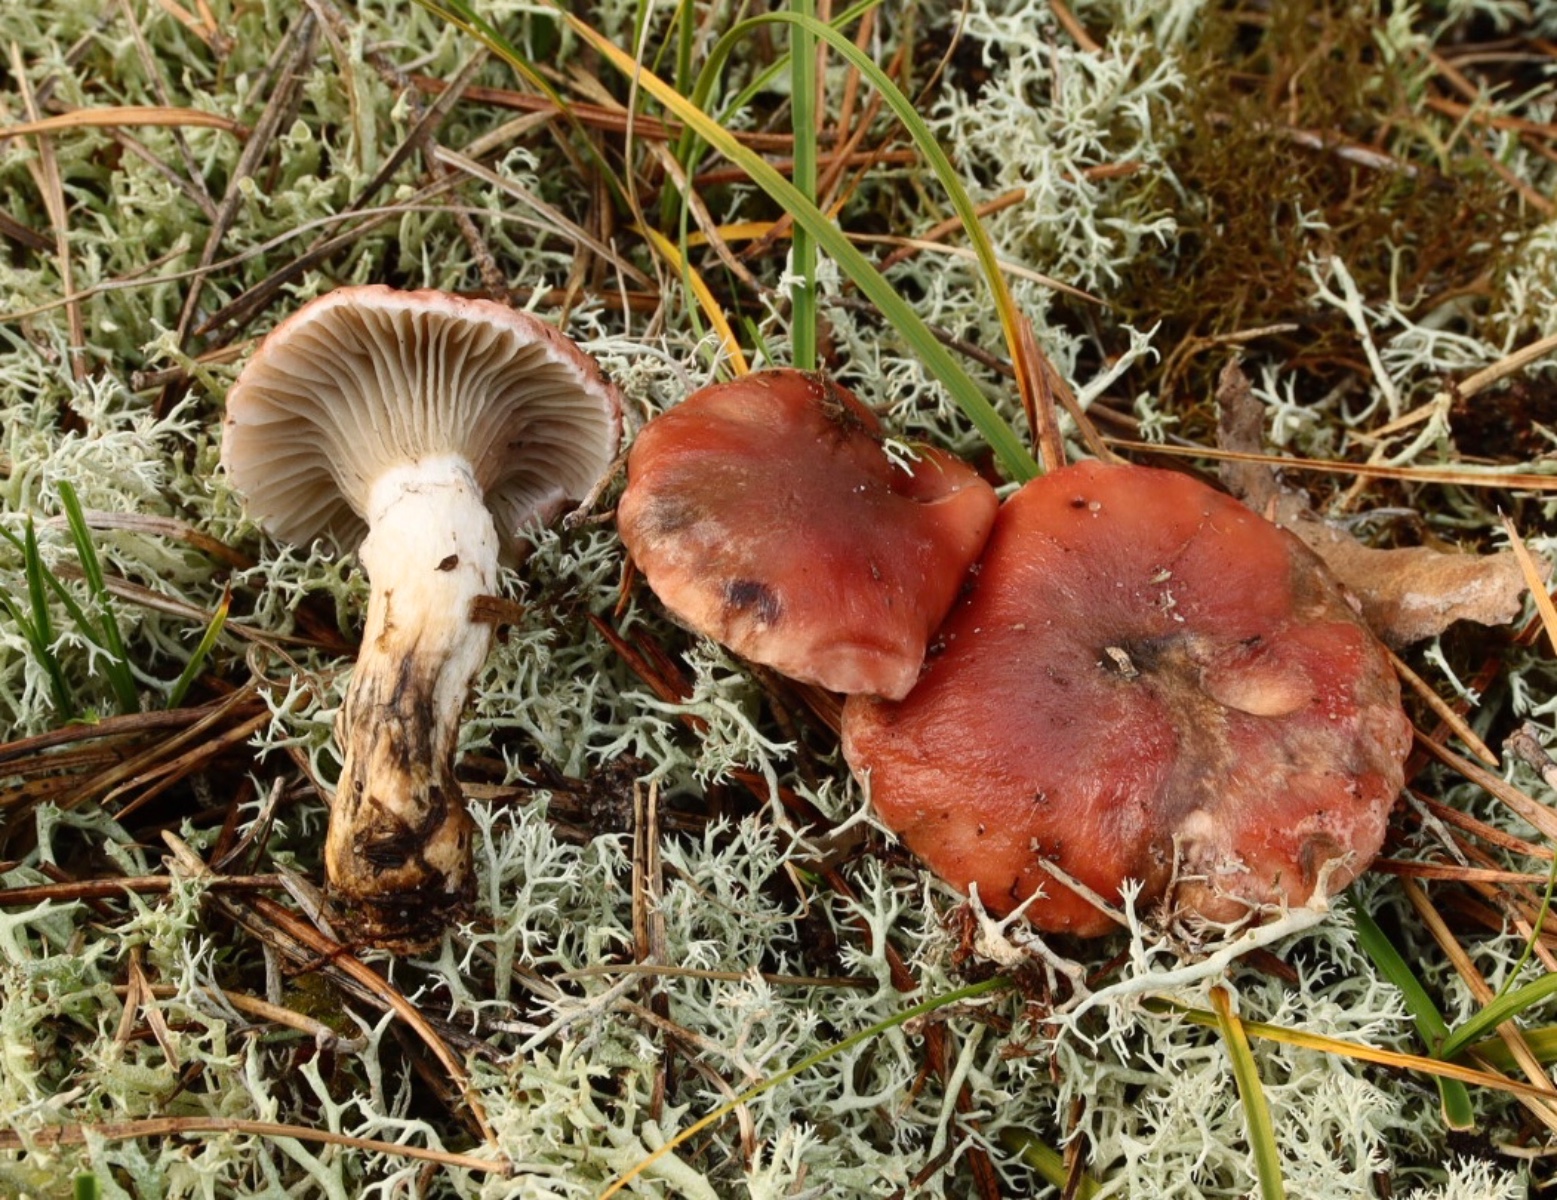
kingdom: Fungi
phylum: Basidiomycota
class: Agaricomycetes
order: Boletales
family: Gomphidiaceae
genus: Gomphidius
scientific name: Gomphidius roseus
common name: rosenrød slimslør
